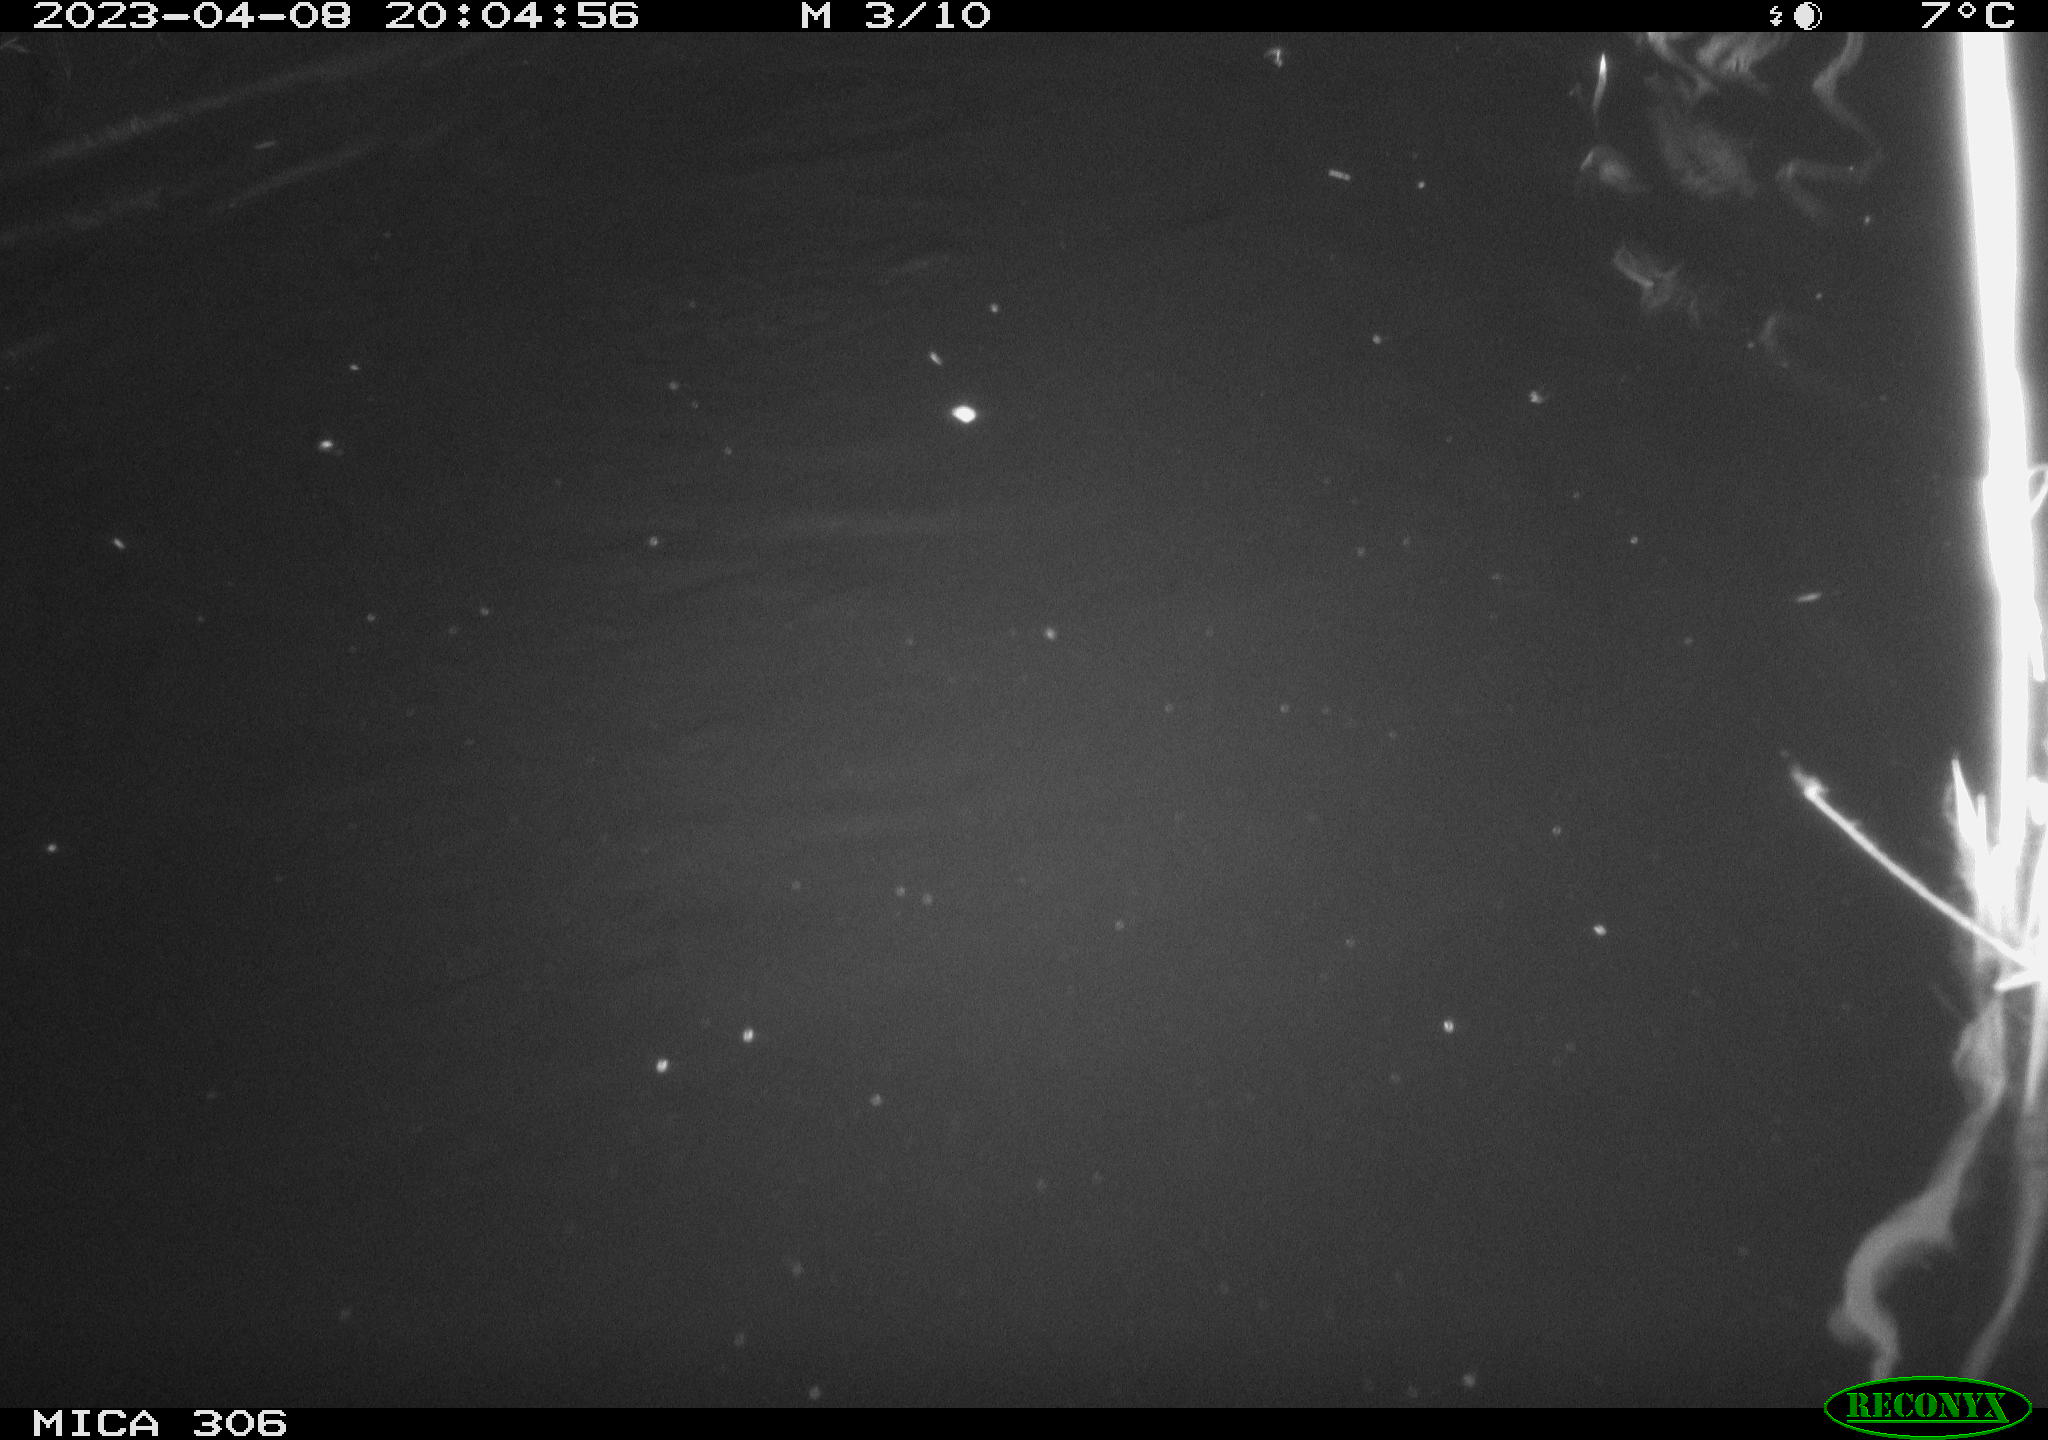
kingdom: Animalia
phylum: Chordata
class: Mammalia
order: Rodentia
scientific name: Rodentia
